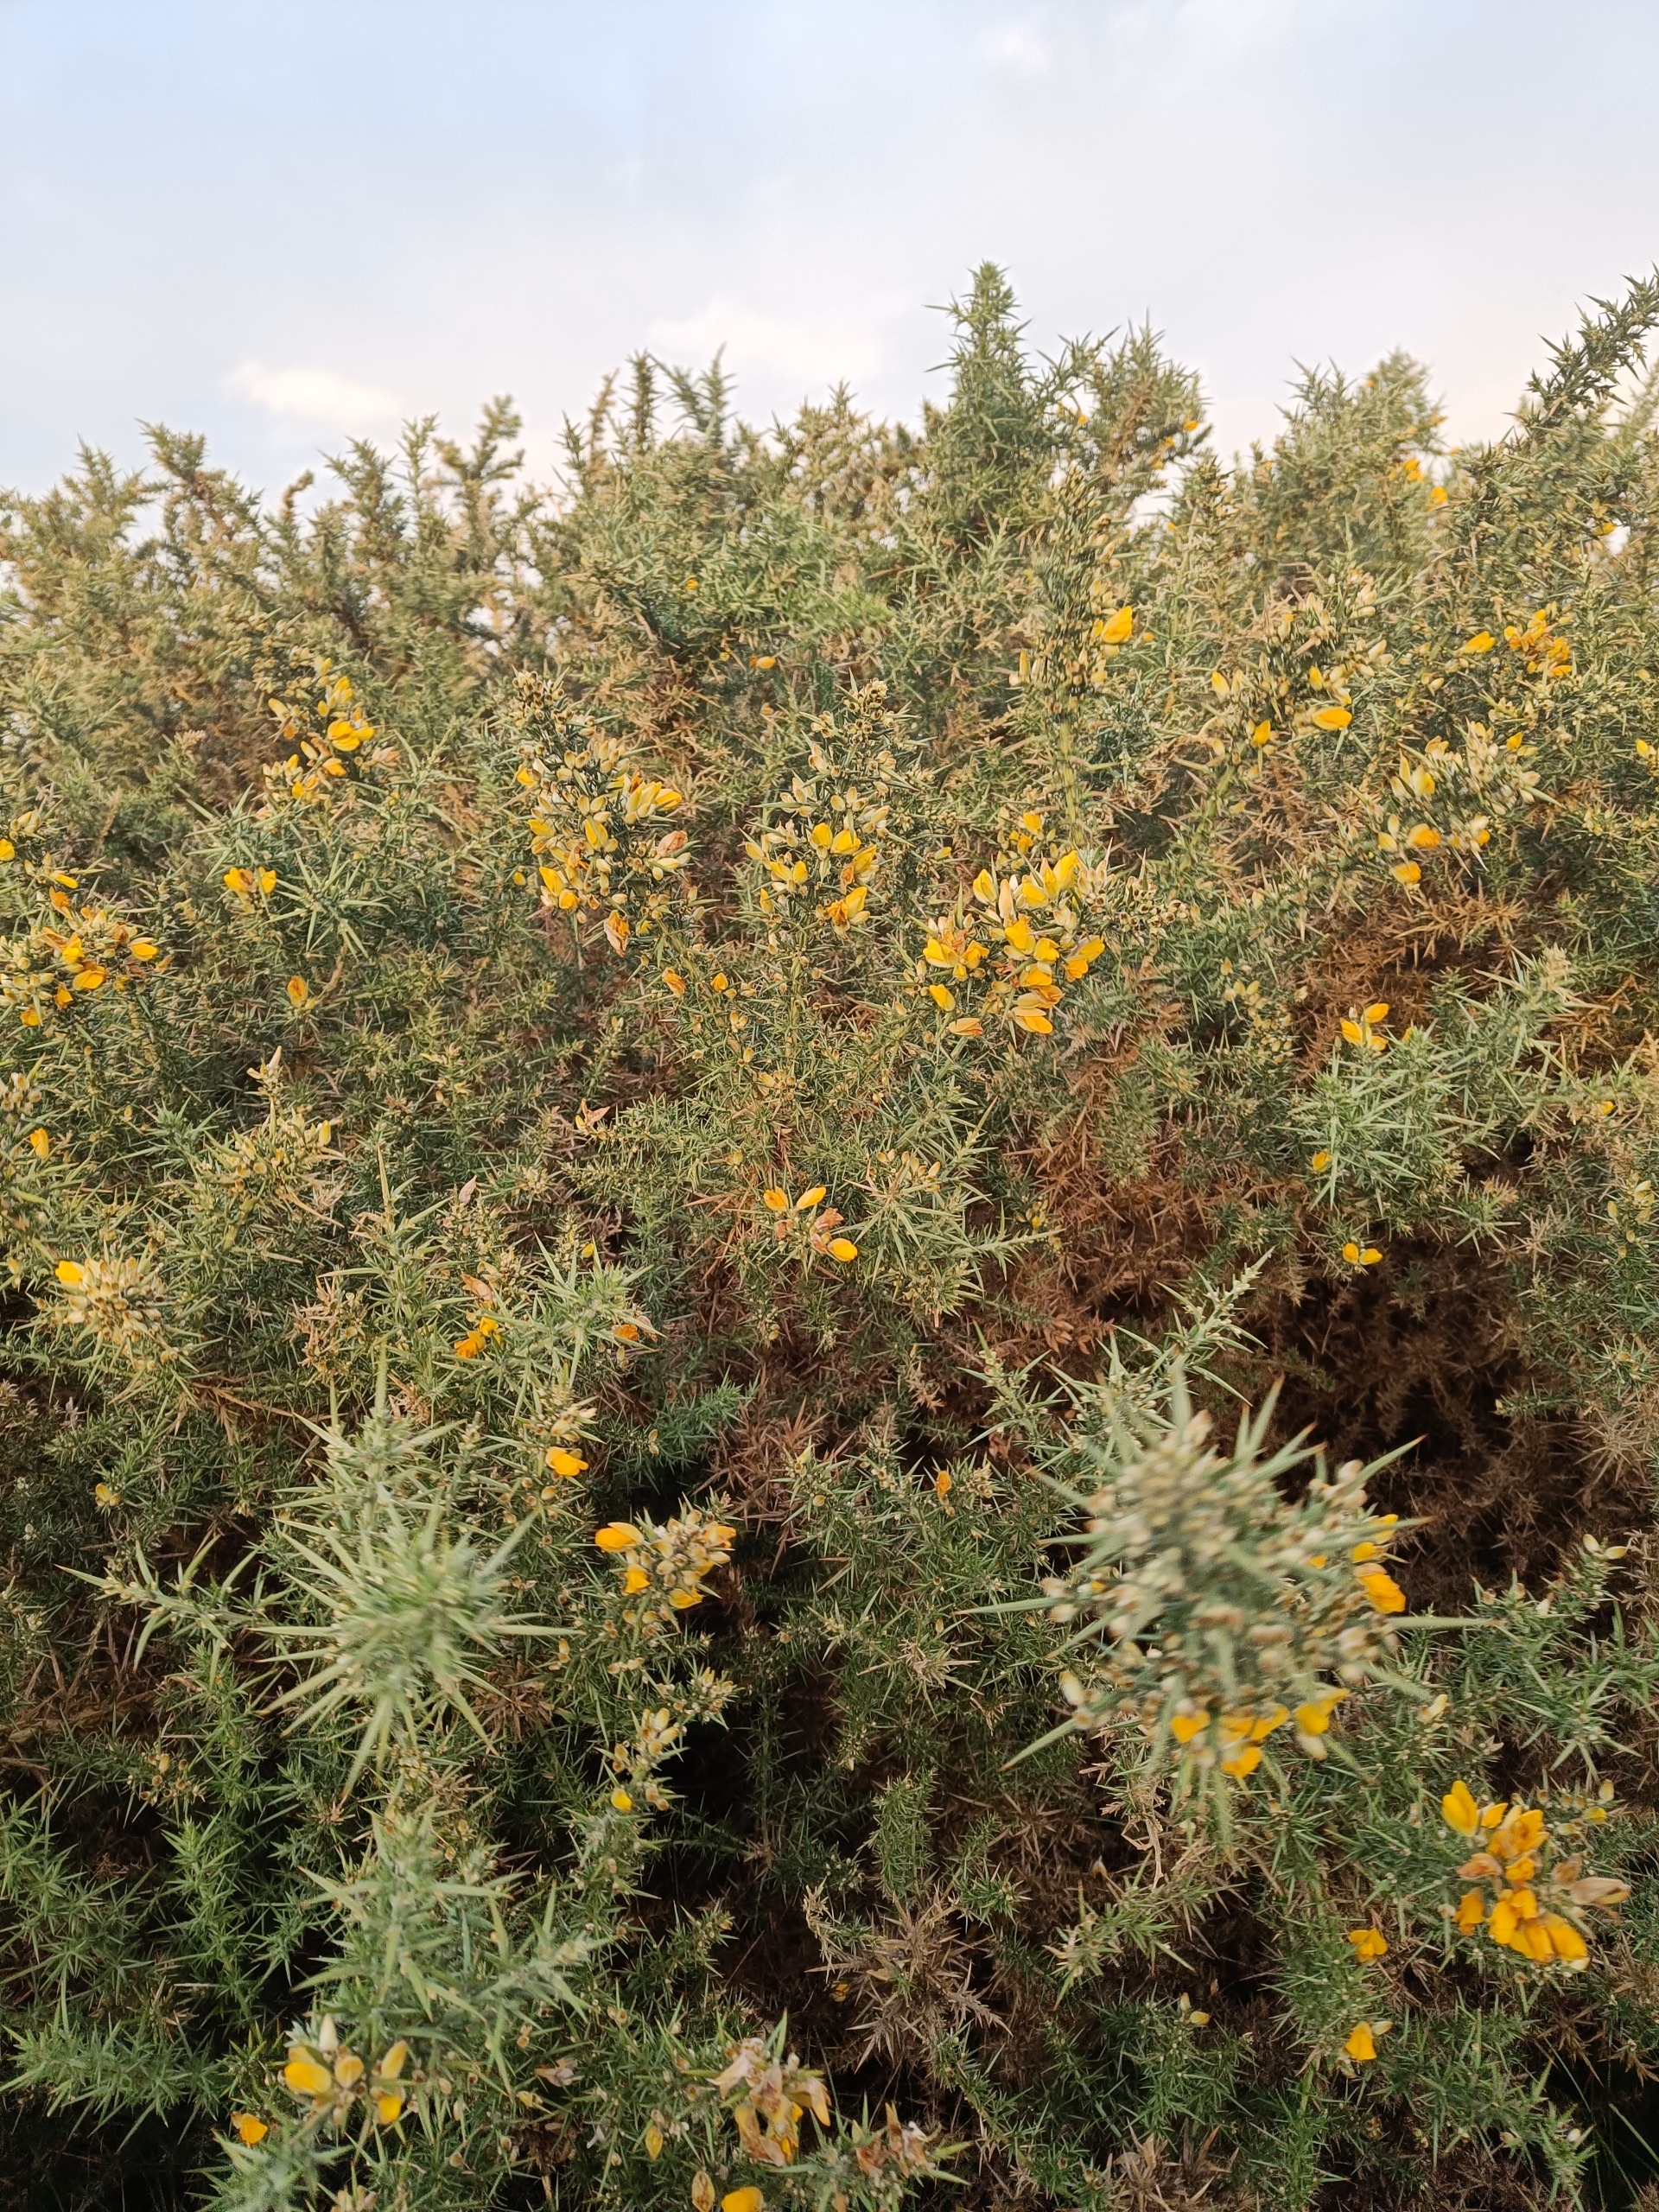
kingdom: Plantae
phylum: Tracheophyta
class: Magnoliopsida
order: Fabales
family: Fabaceae
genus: Ulex
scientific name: Ulex europaeus
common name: Tornblad
